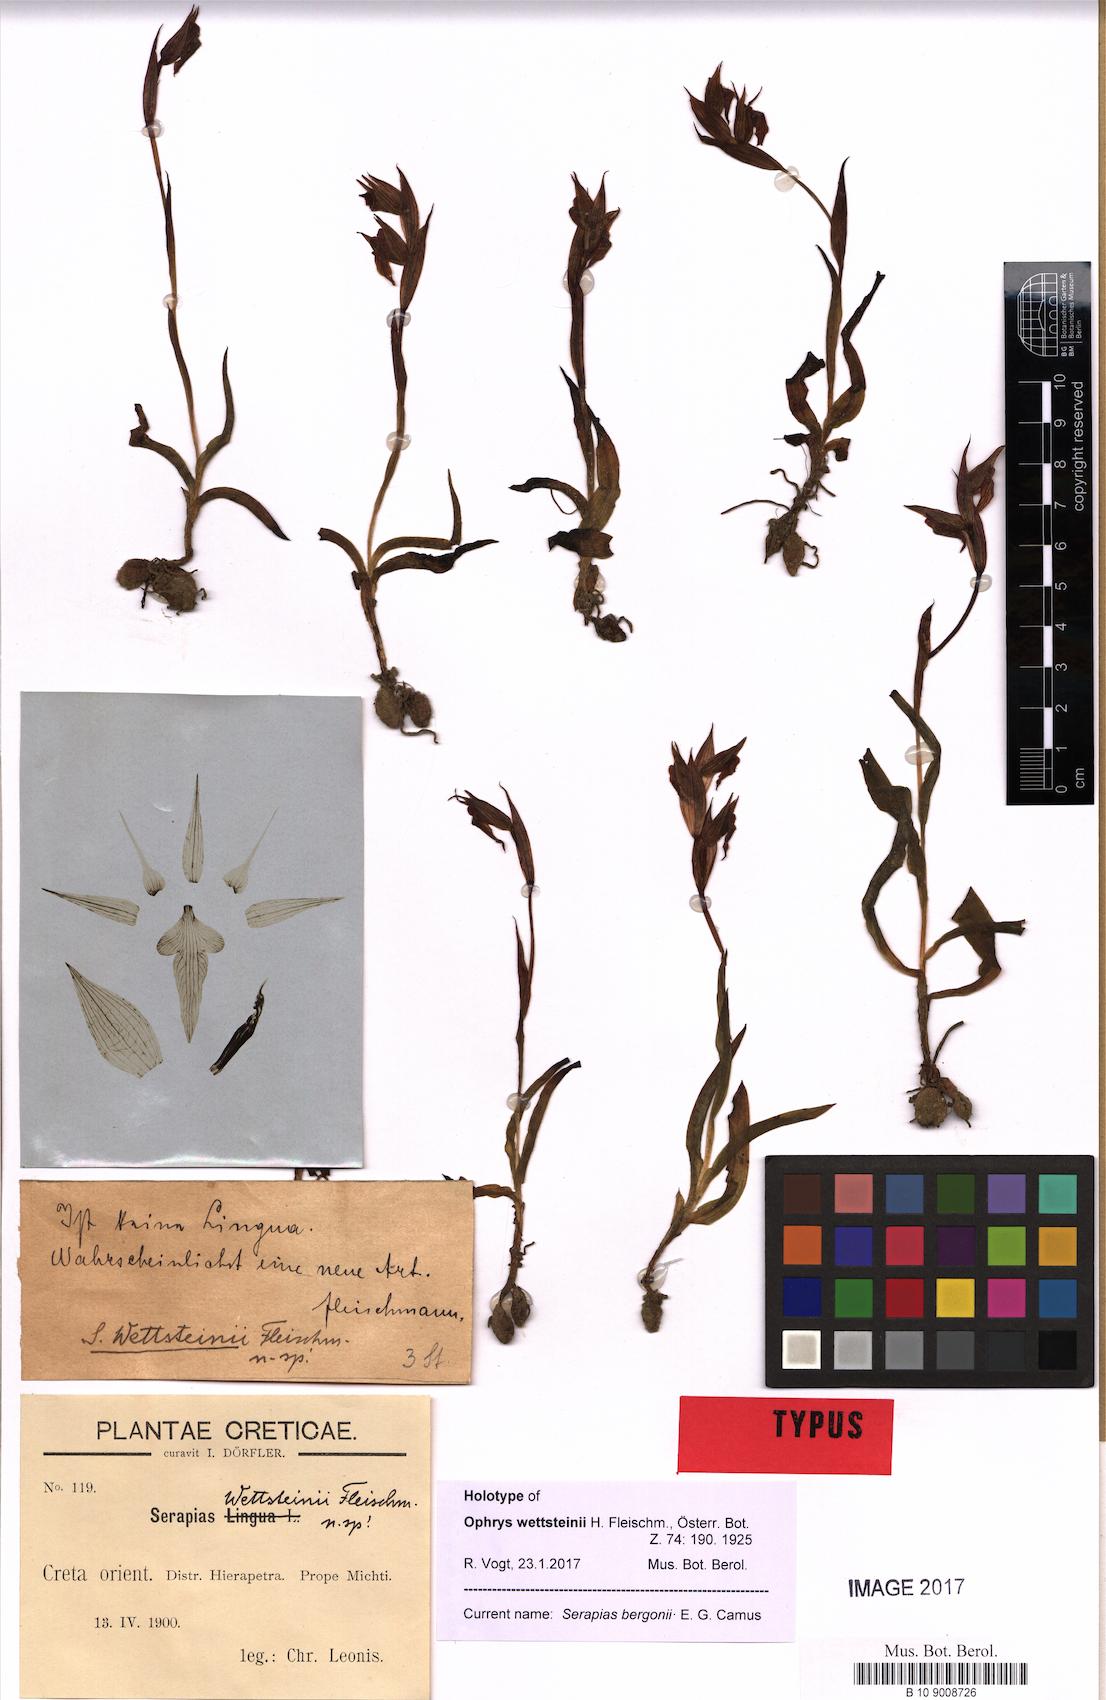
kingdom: Plantae
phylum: Tracheophyta
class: Liliopsida
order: Asparagales
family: Orchidaceae
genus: Serapias
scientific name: Serapias bergonii
